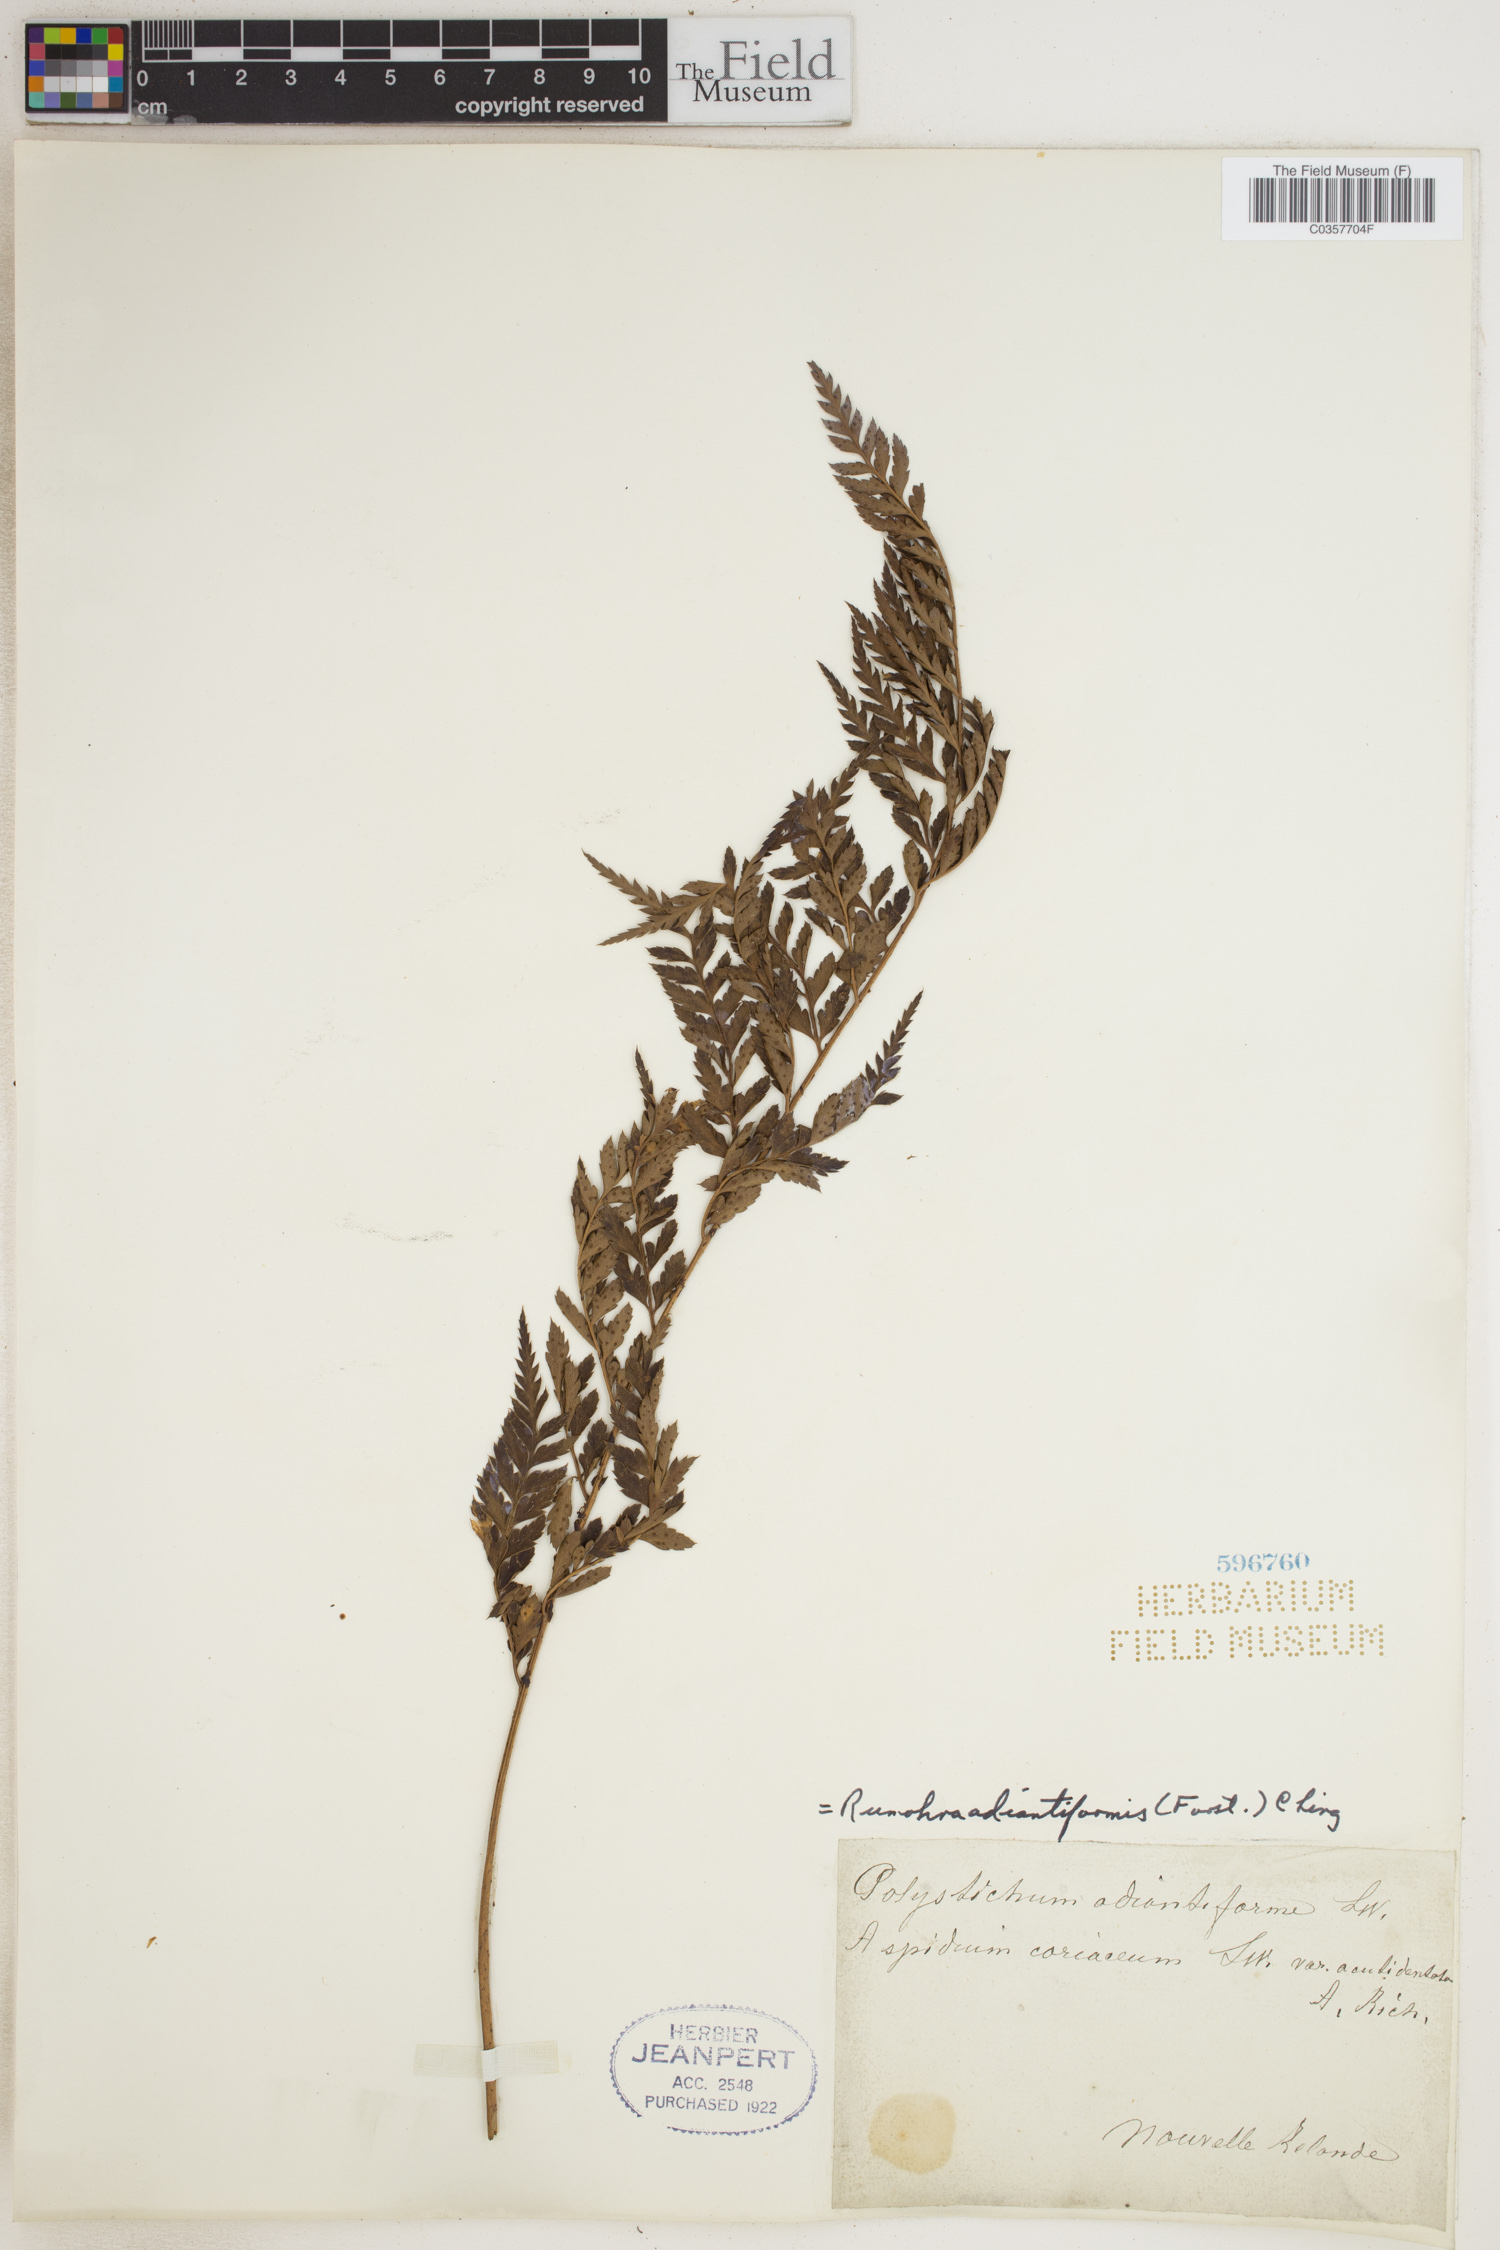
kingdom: Plantae
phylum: Tracheophyta
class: Polypodiopsida
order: Polypodiales
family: Dryopteridaceae
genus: Rumohra
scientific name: Rumohra adiantiformis
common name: Leather fern
